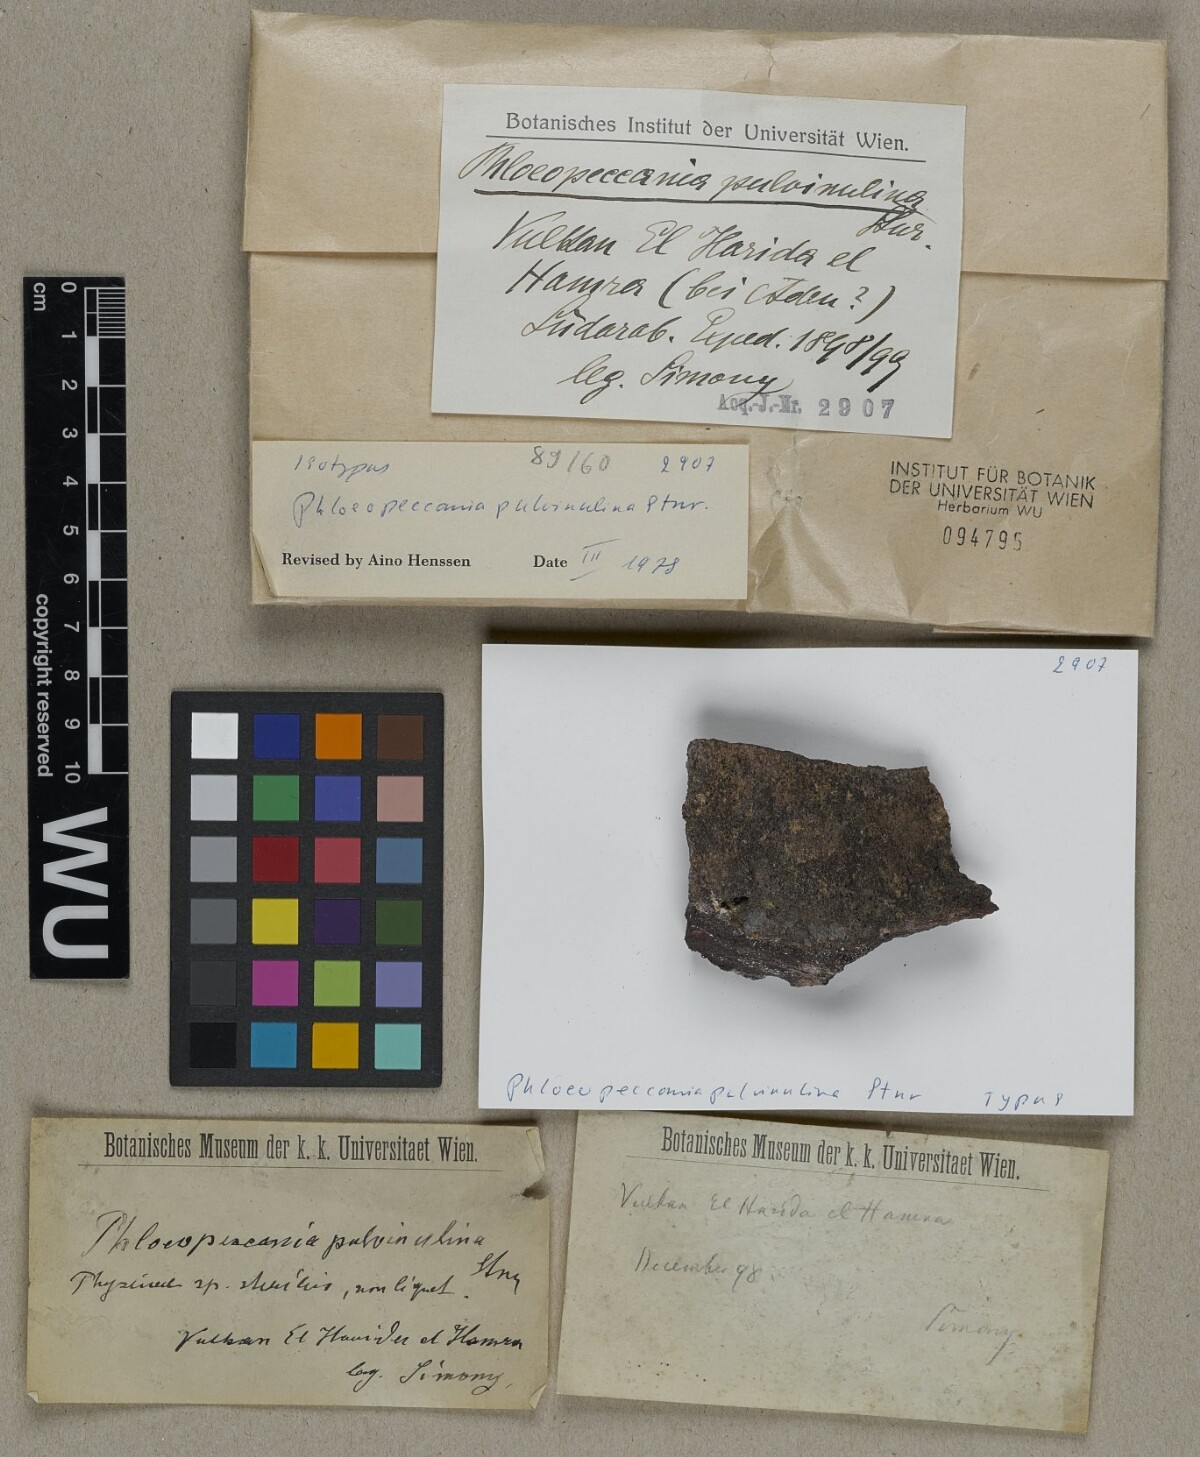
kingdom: Fungi
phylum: Ascomycota
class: Lichinomycetes
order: Lichinales
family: Lichinaceae
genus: Phloeopeccania
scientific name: Phloeopeccania pulvinulina
